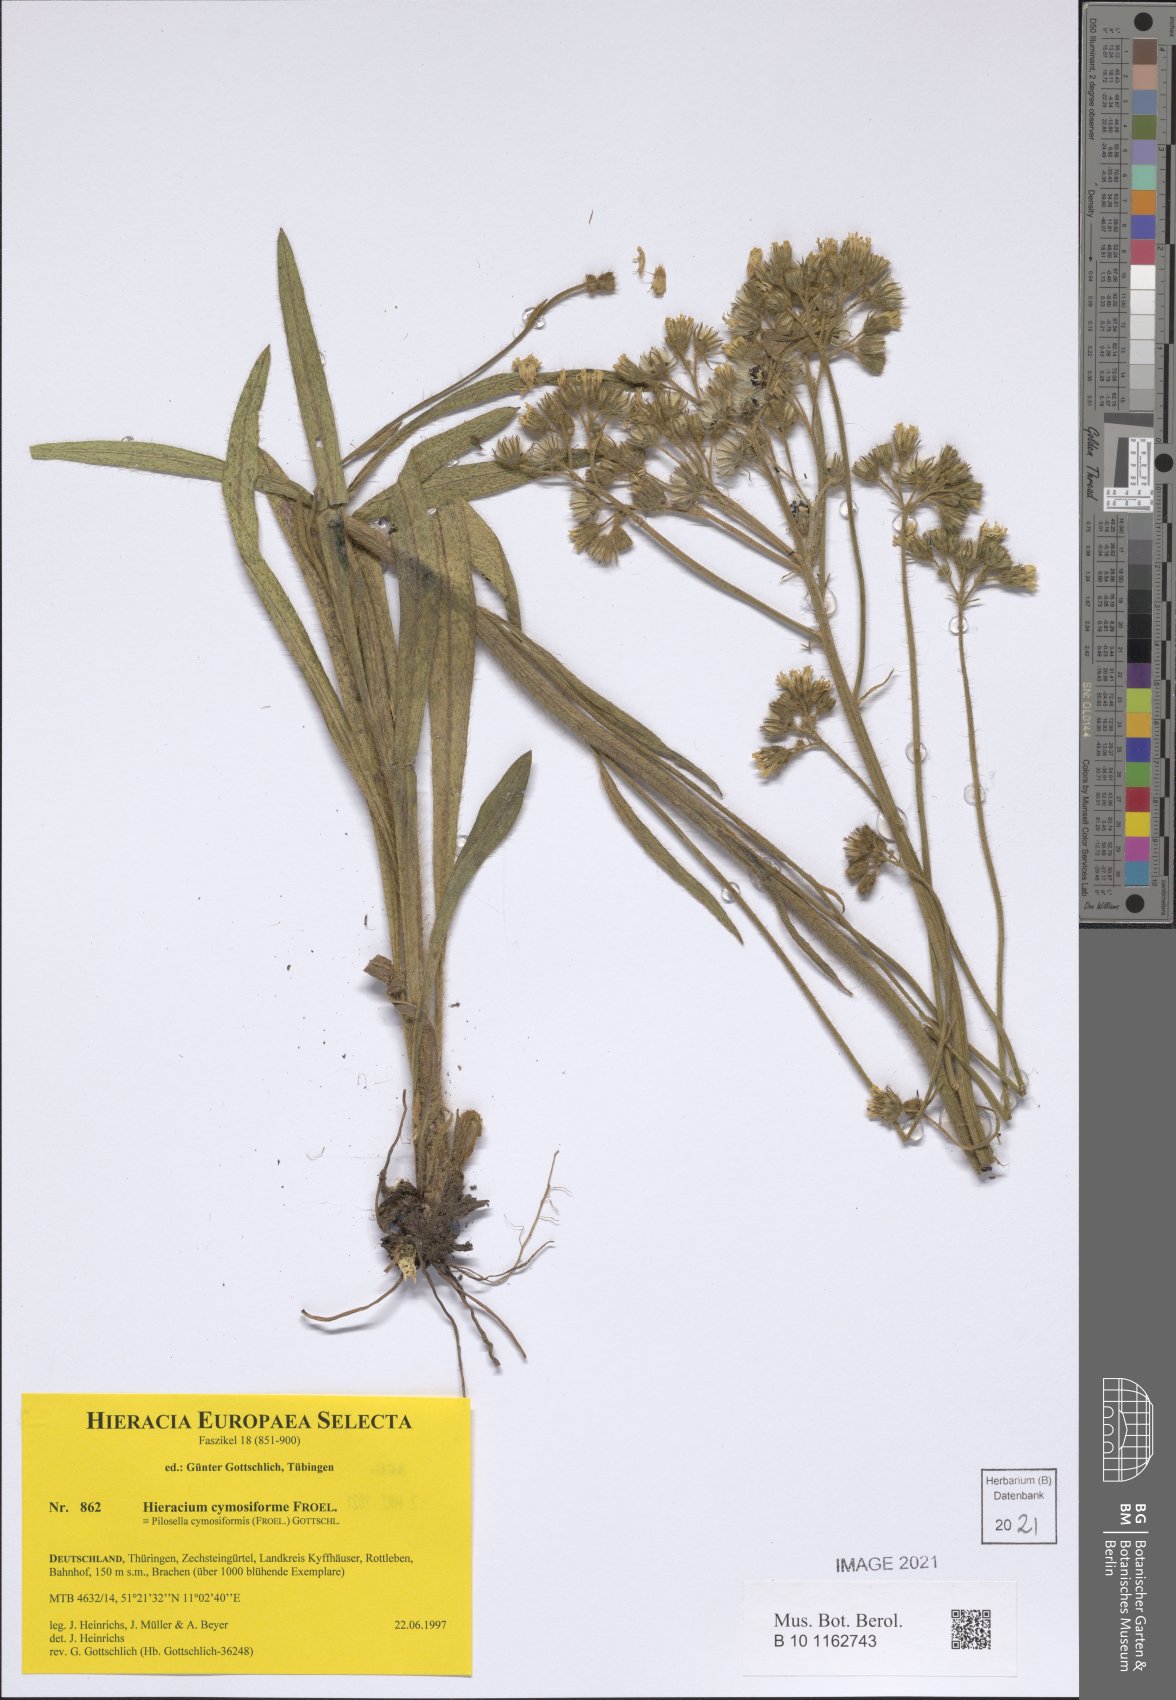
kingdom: Plantae
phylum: Tracheophyta
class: Magnoliopsida
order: Asterales
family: Asteraceae
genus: Pilosella
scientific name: Pilosella cymosiformis
